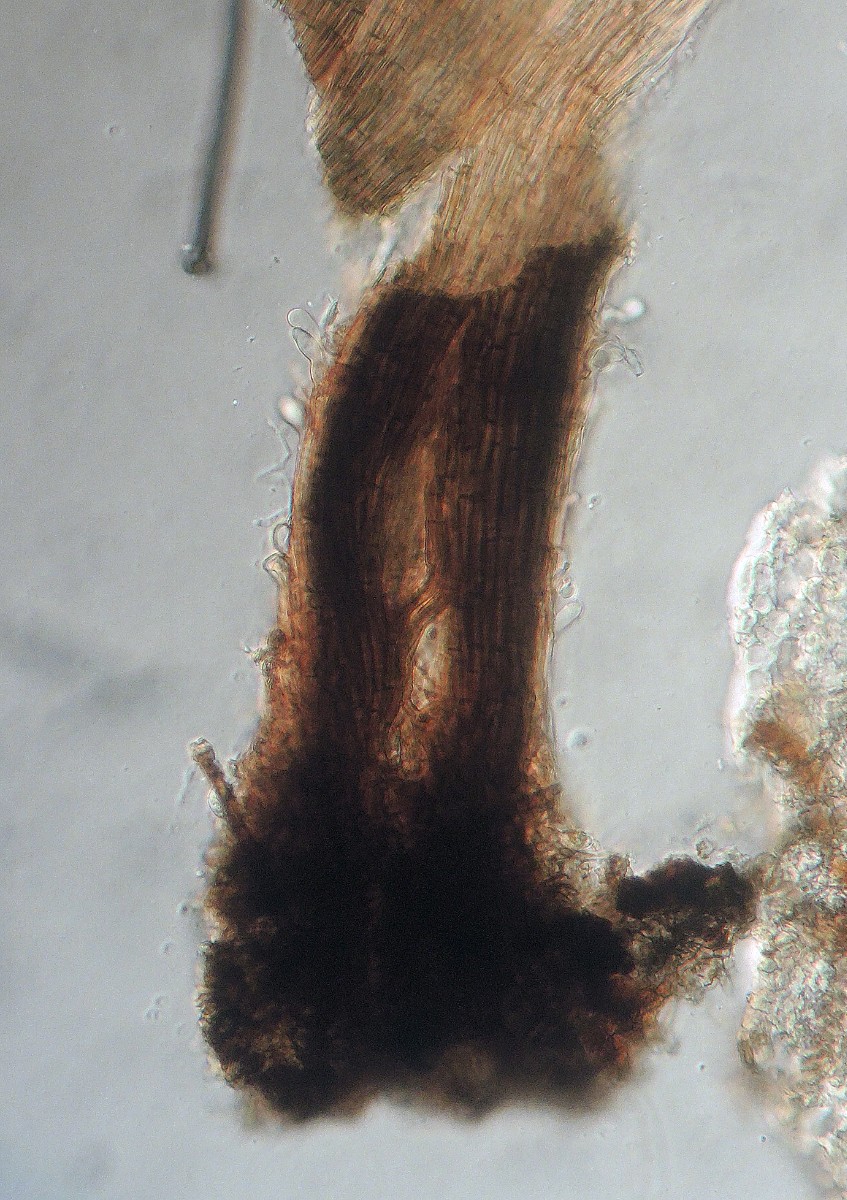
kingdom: Fungi
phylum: Ascomycota
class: Leotiomycetes
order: Helotiales
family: Gelatinodiscaceae
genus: Ombrophila
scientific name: Ombrophila juniperinella
